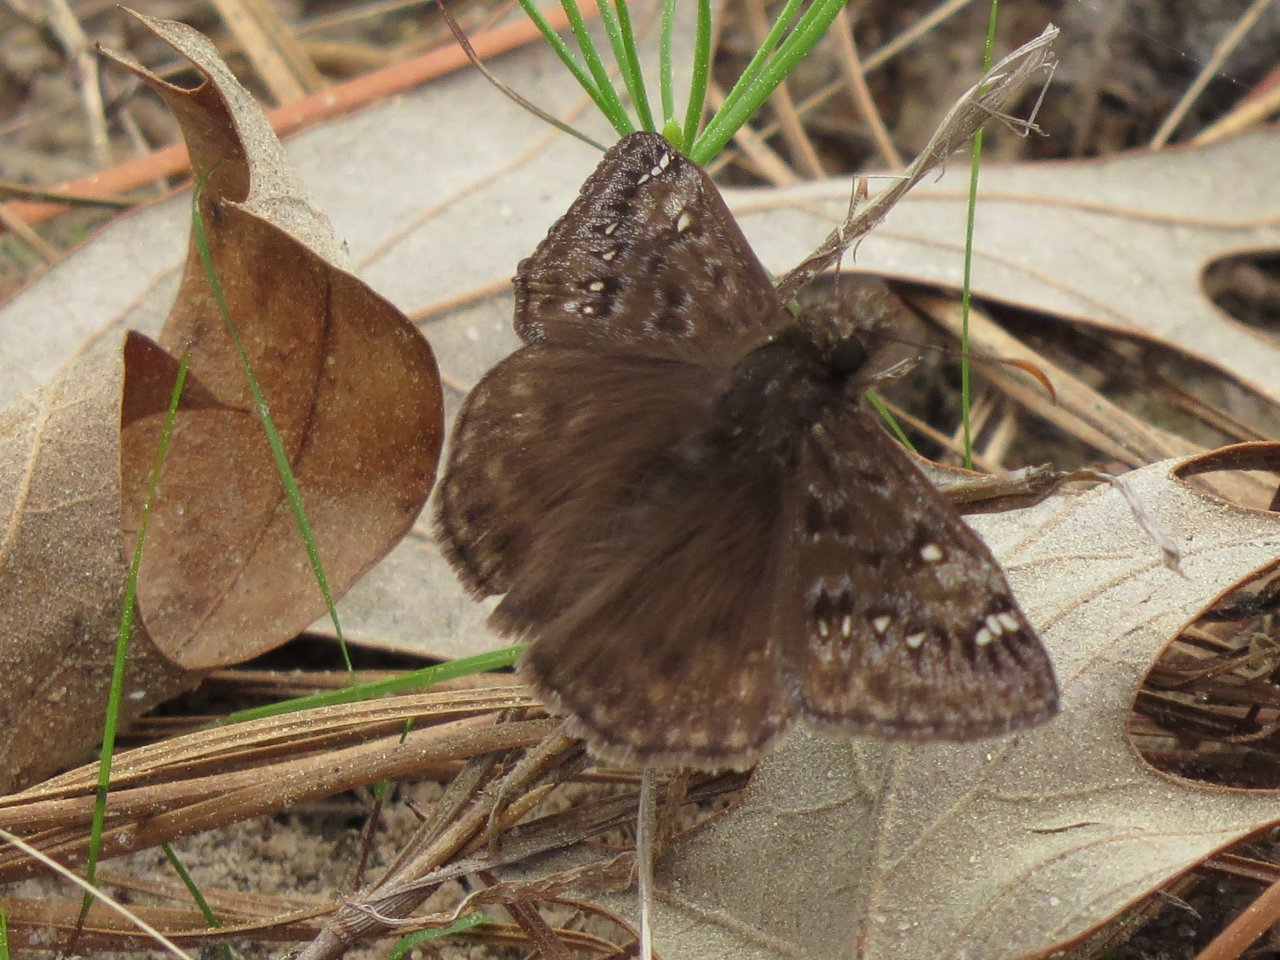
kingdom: Animalia
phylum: Arthropoda
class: Insecta
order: Lepidoptera
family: Hesperiidae
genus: Gesta
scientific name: Gesta
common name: Juvenal's Duskywing
